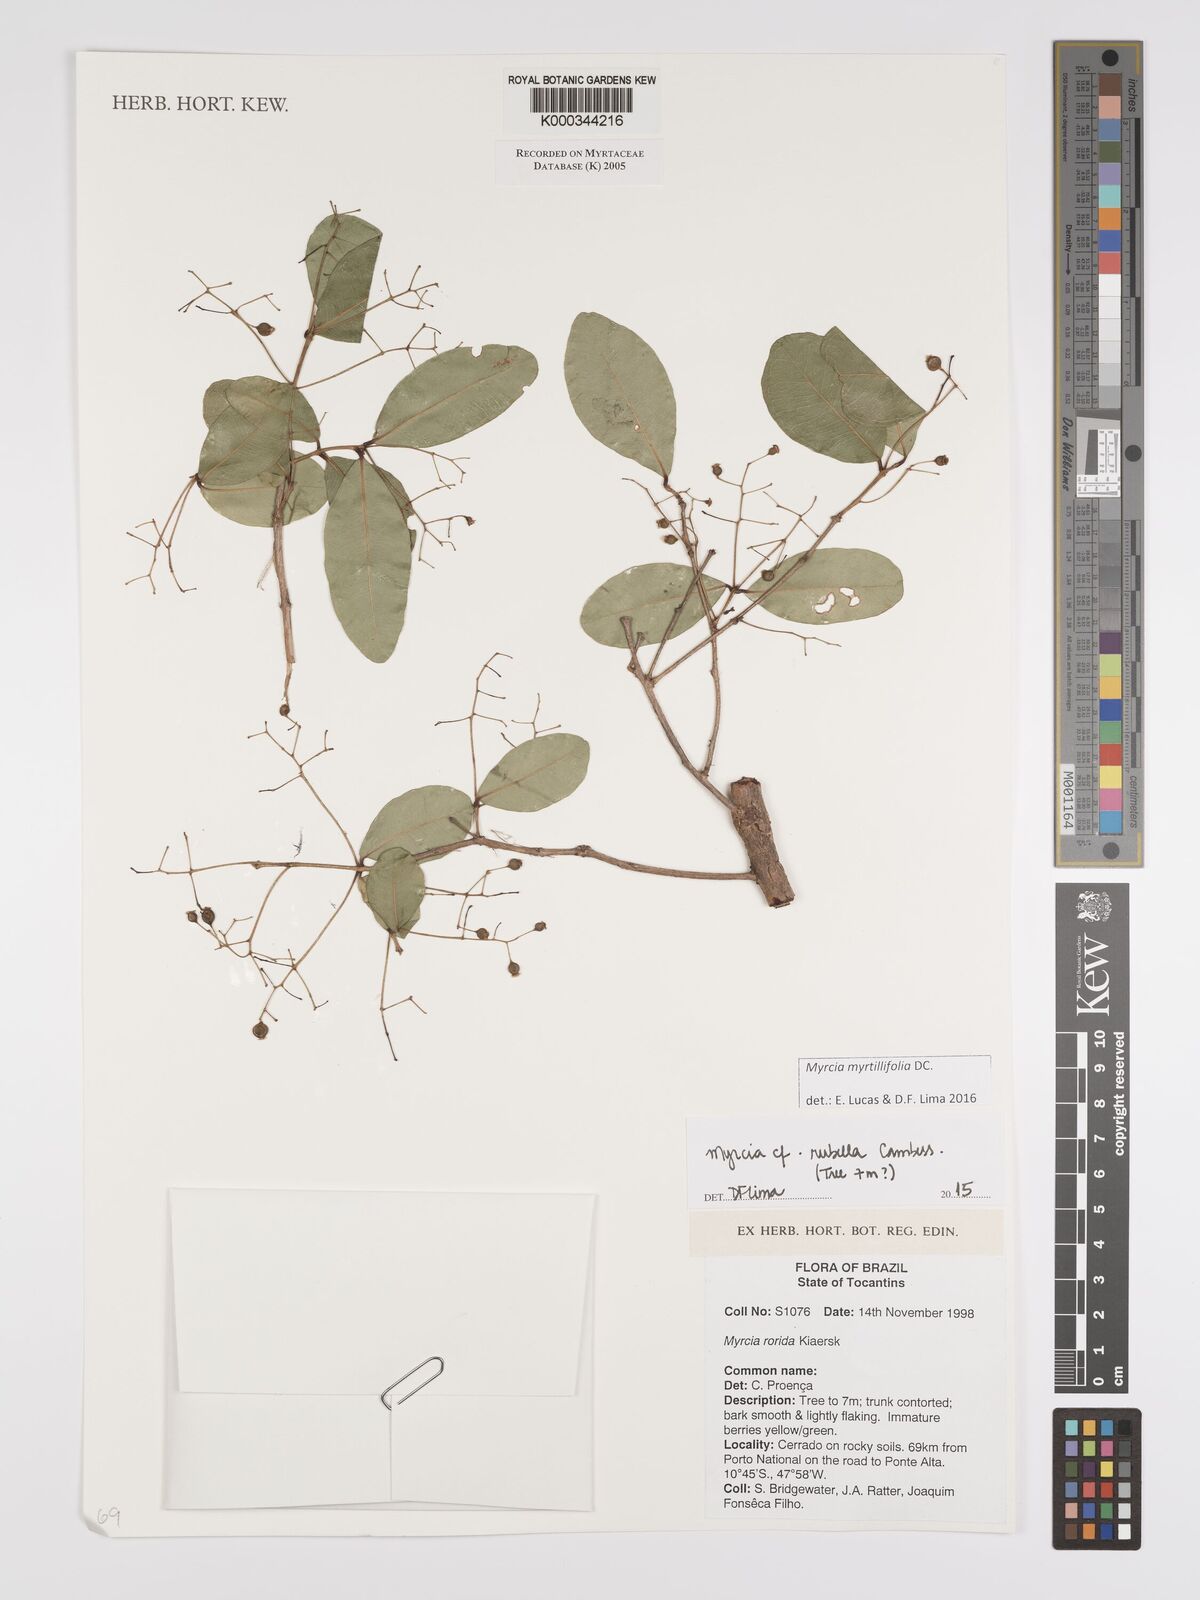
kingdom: Plantae
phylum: Tracheophyta
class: Magnoliopsida
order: Myrtales
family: Myrtaceae
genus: Myrcia
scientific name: Myrcia guianensis
